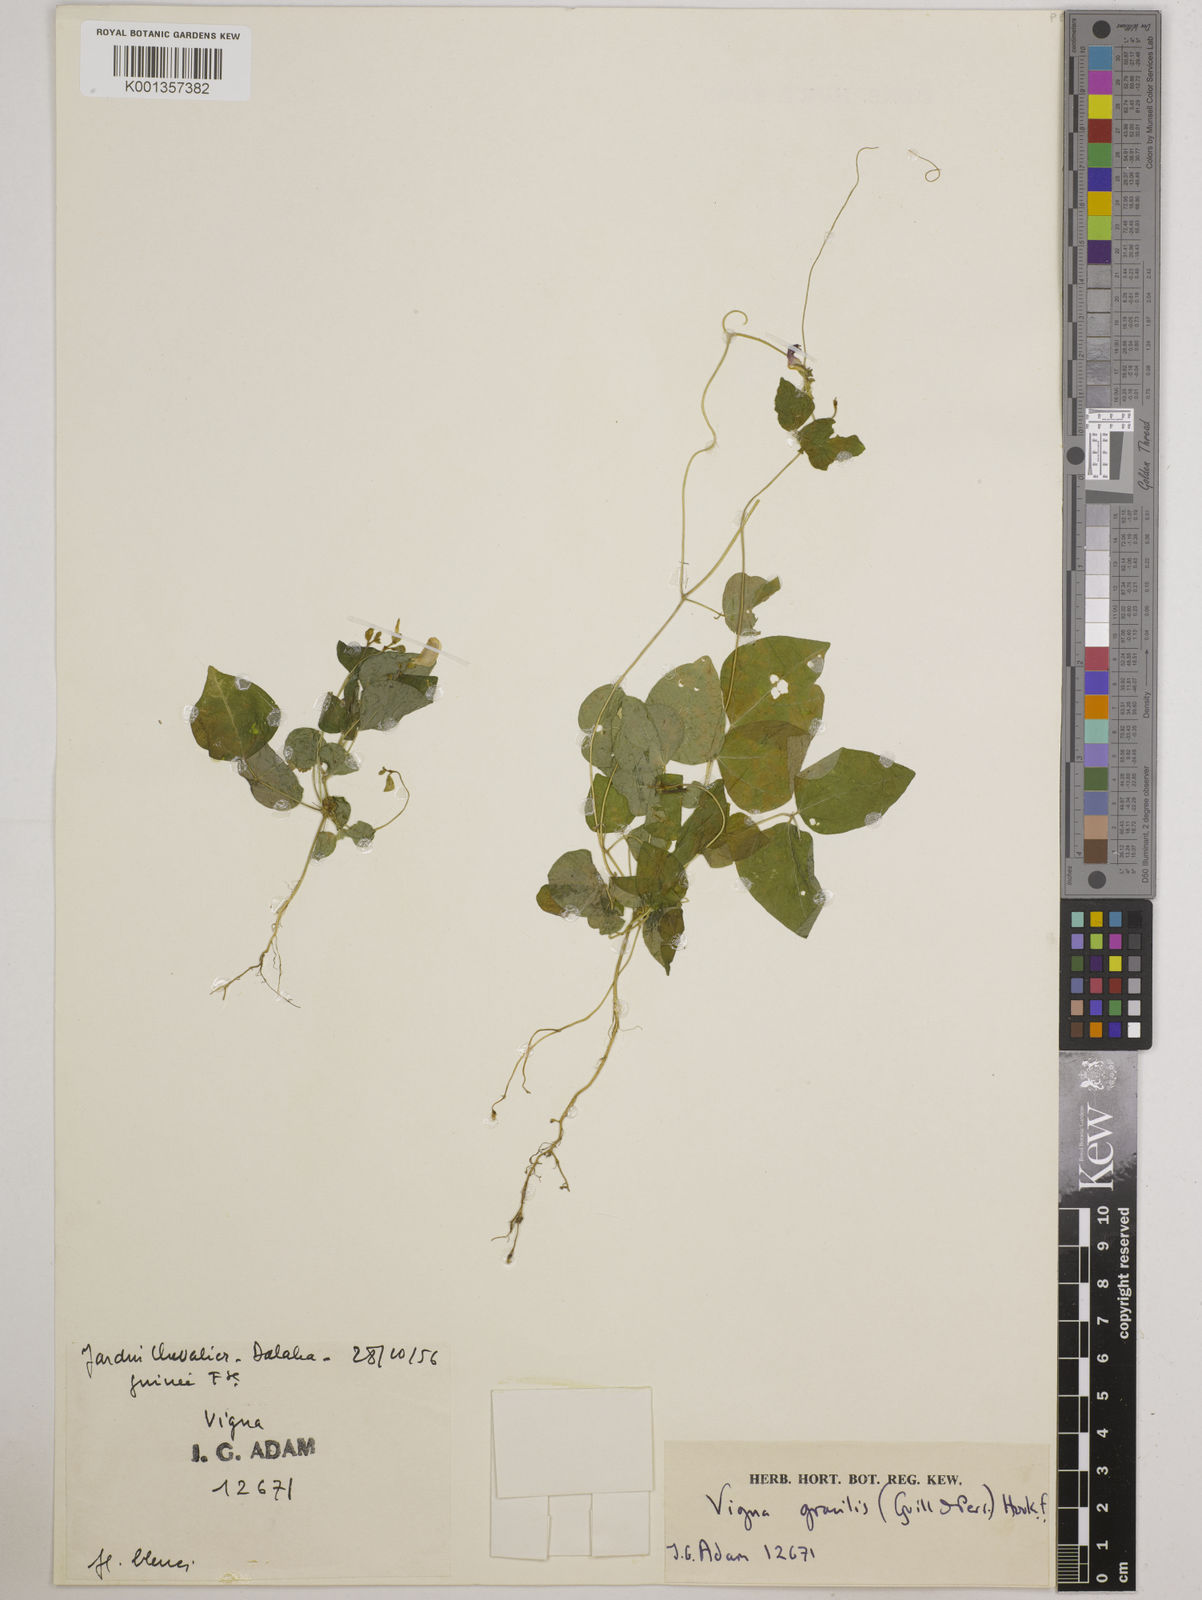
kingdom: Plantae
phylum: Tracheophyta
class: Magnoliopsida
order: Fabales
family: Fabaceae
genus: Vigna
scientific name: Vigna gracilis
